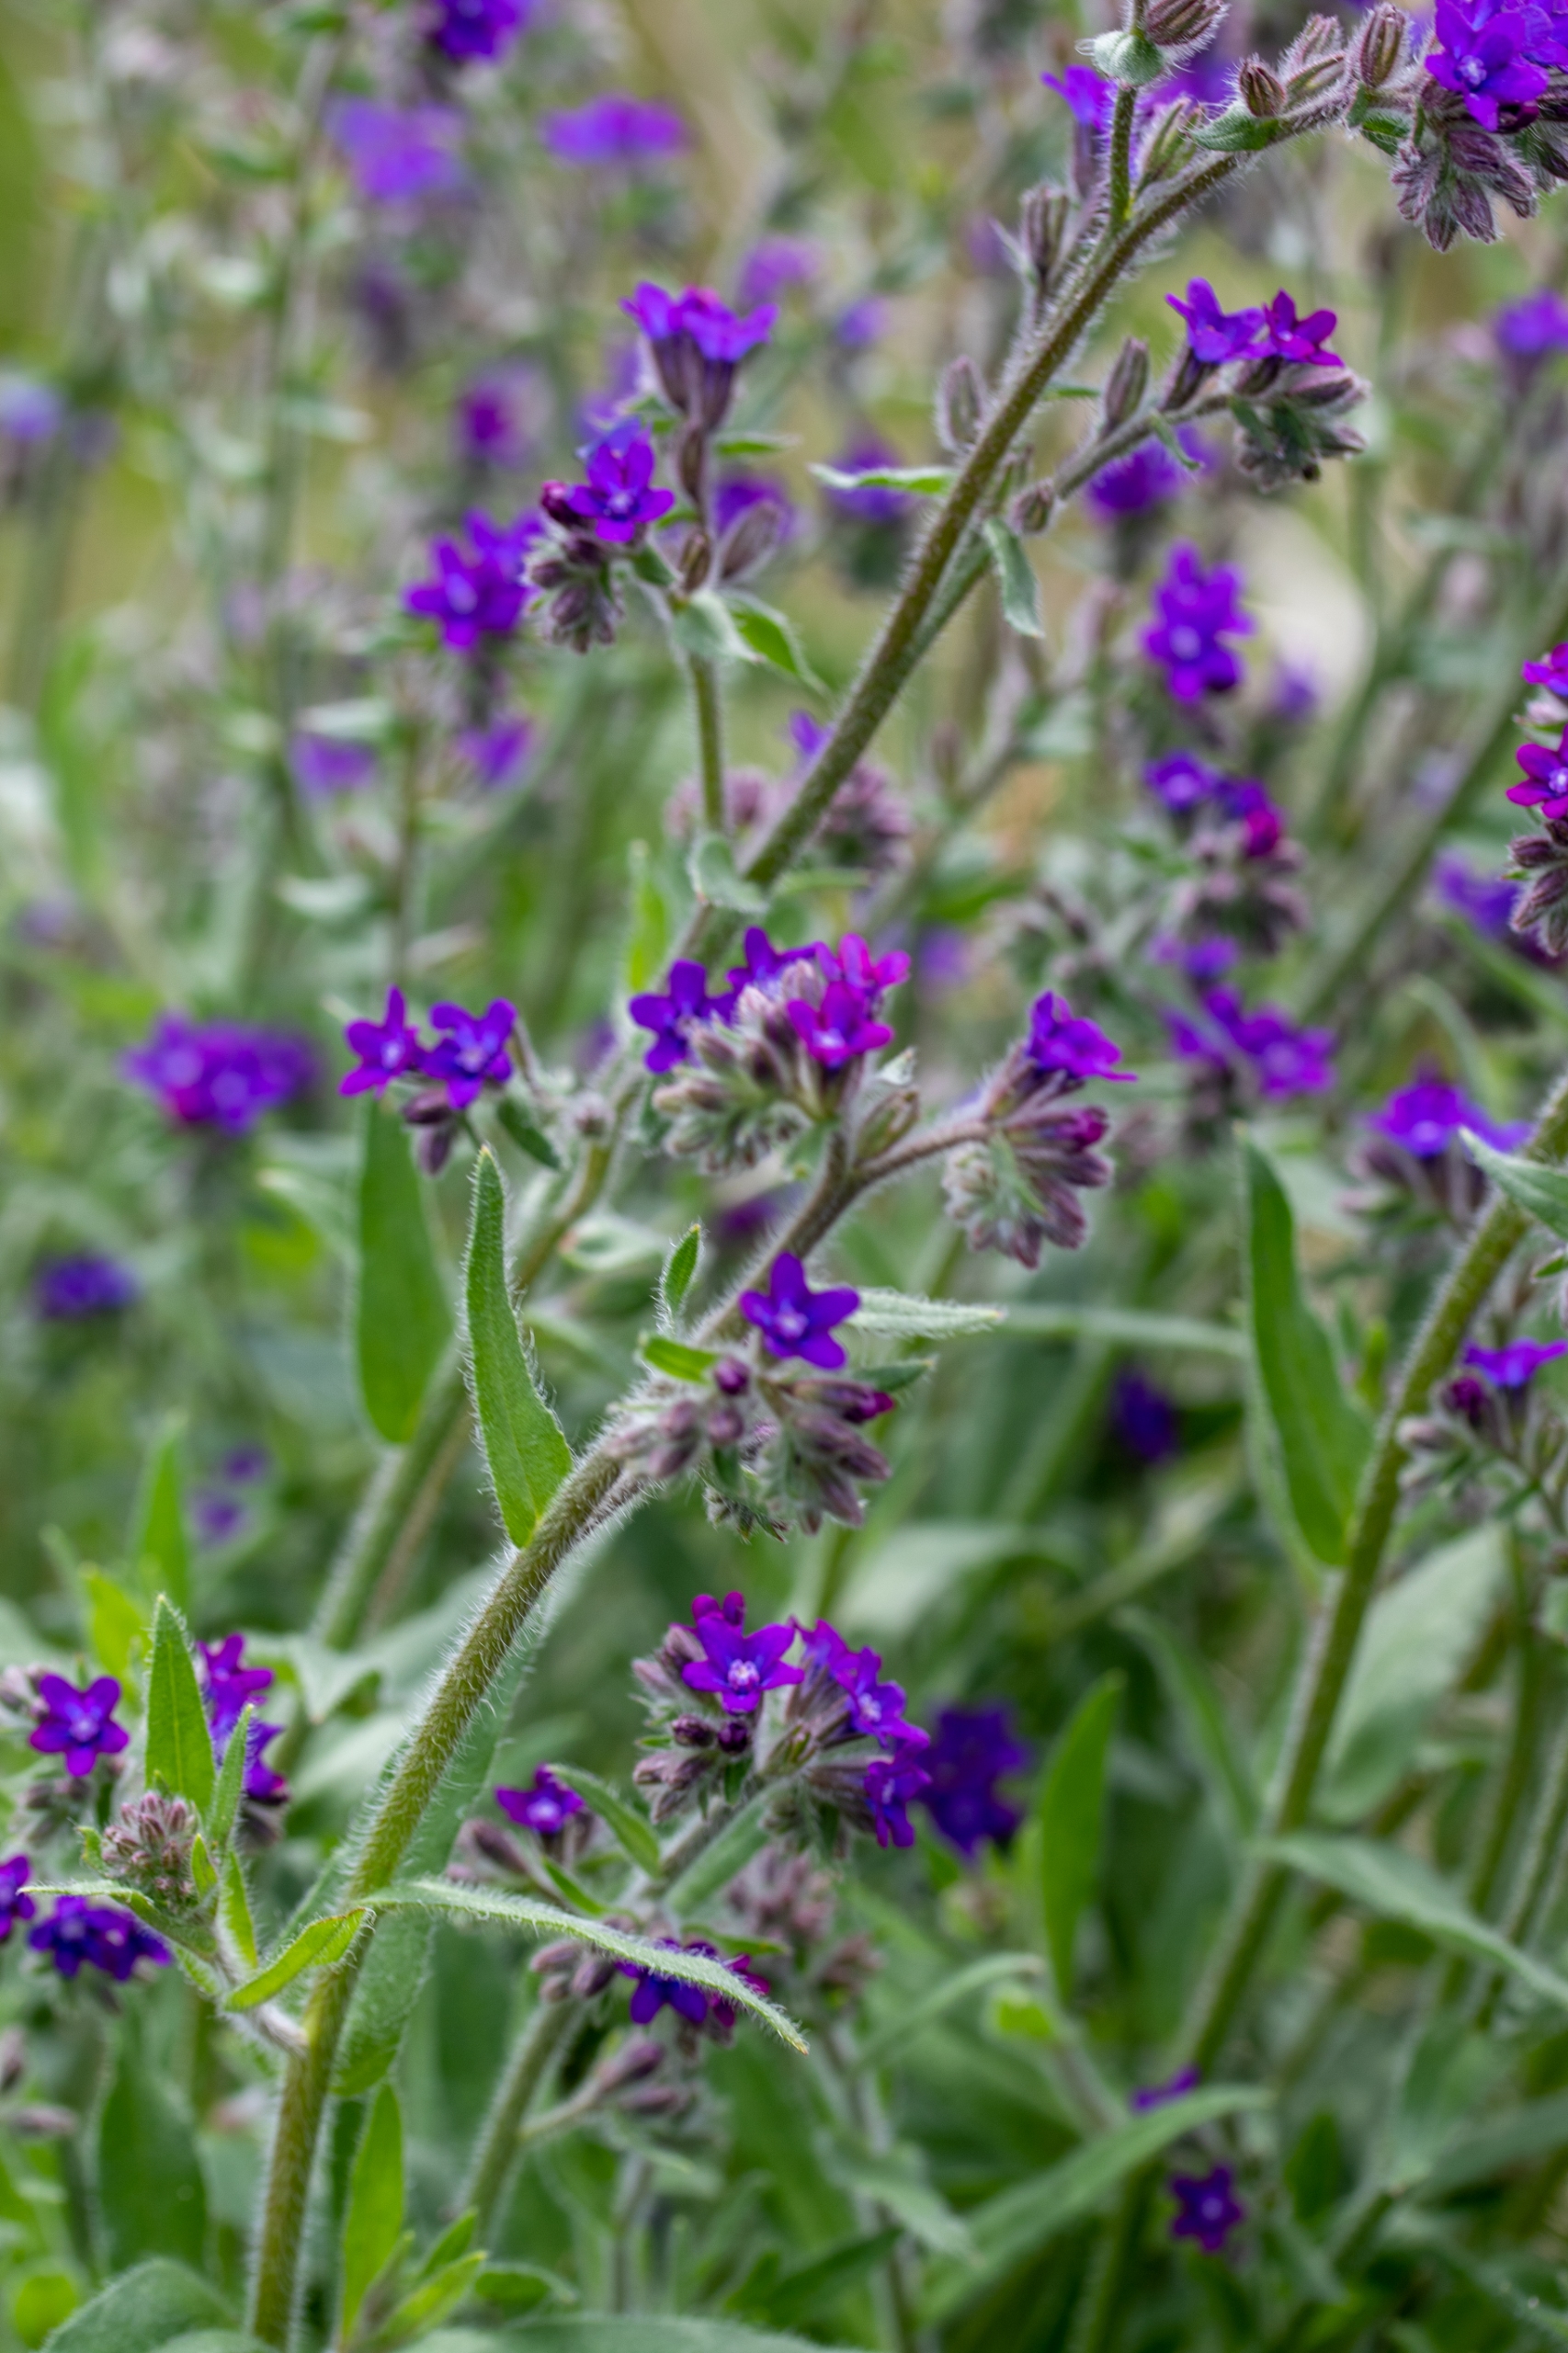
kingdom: Plantae
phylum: Tracheophyta
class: Magnoliopsida
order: Boraginales
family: Boraginaceae
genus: Anchusa
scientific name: Anchusa officinalis
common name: Læge-oksetunge
